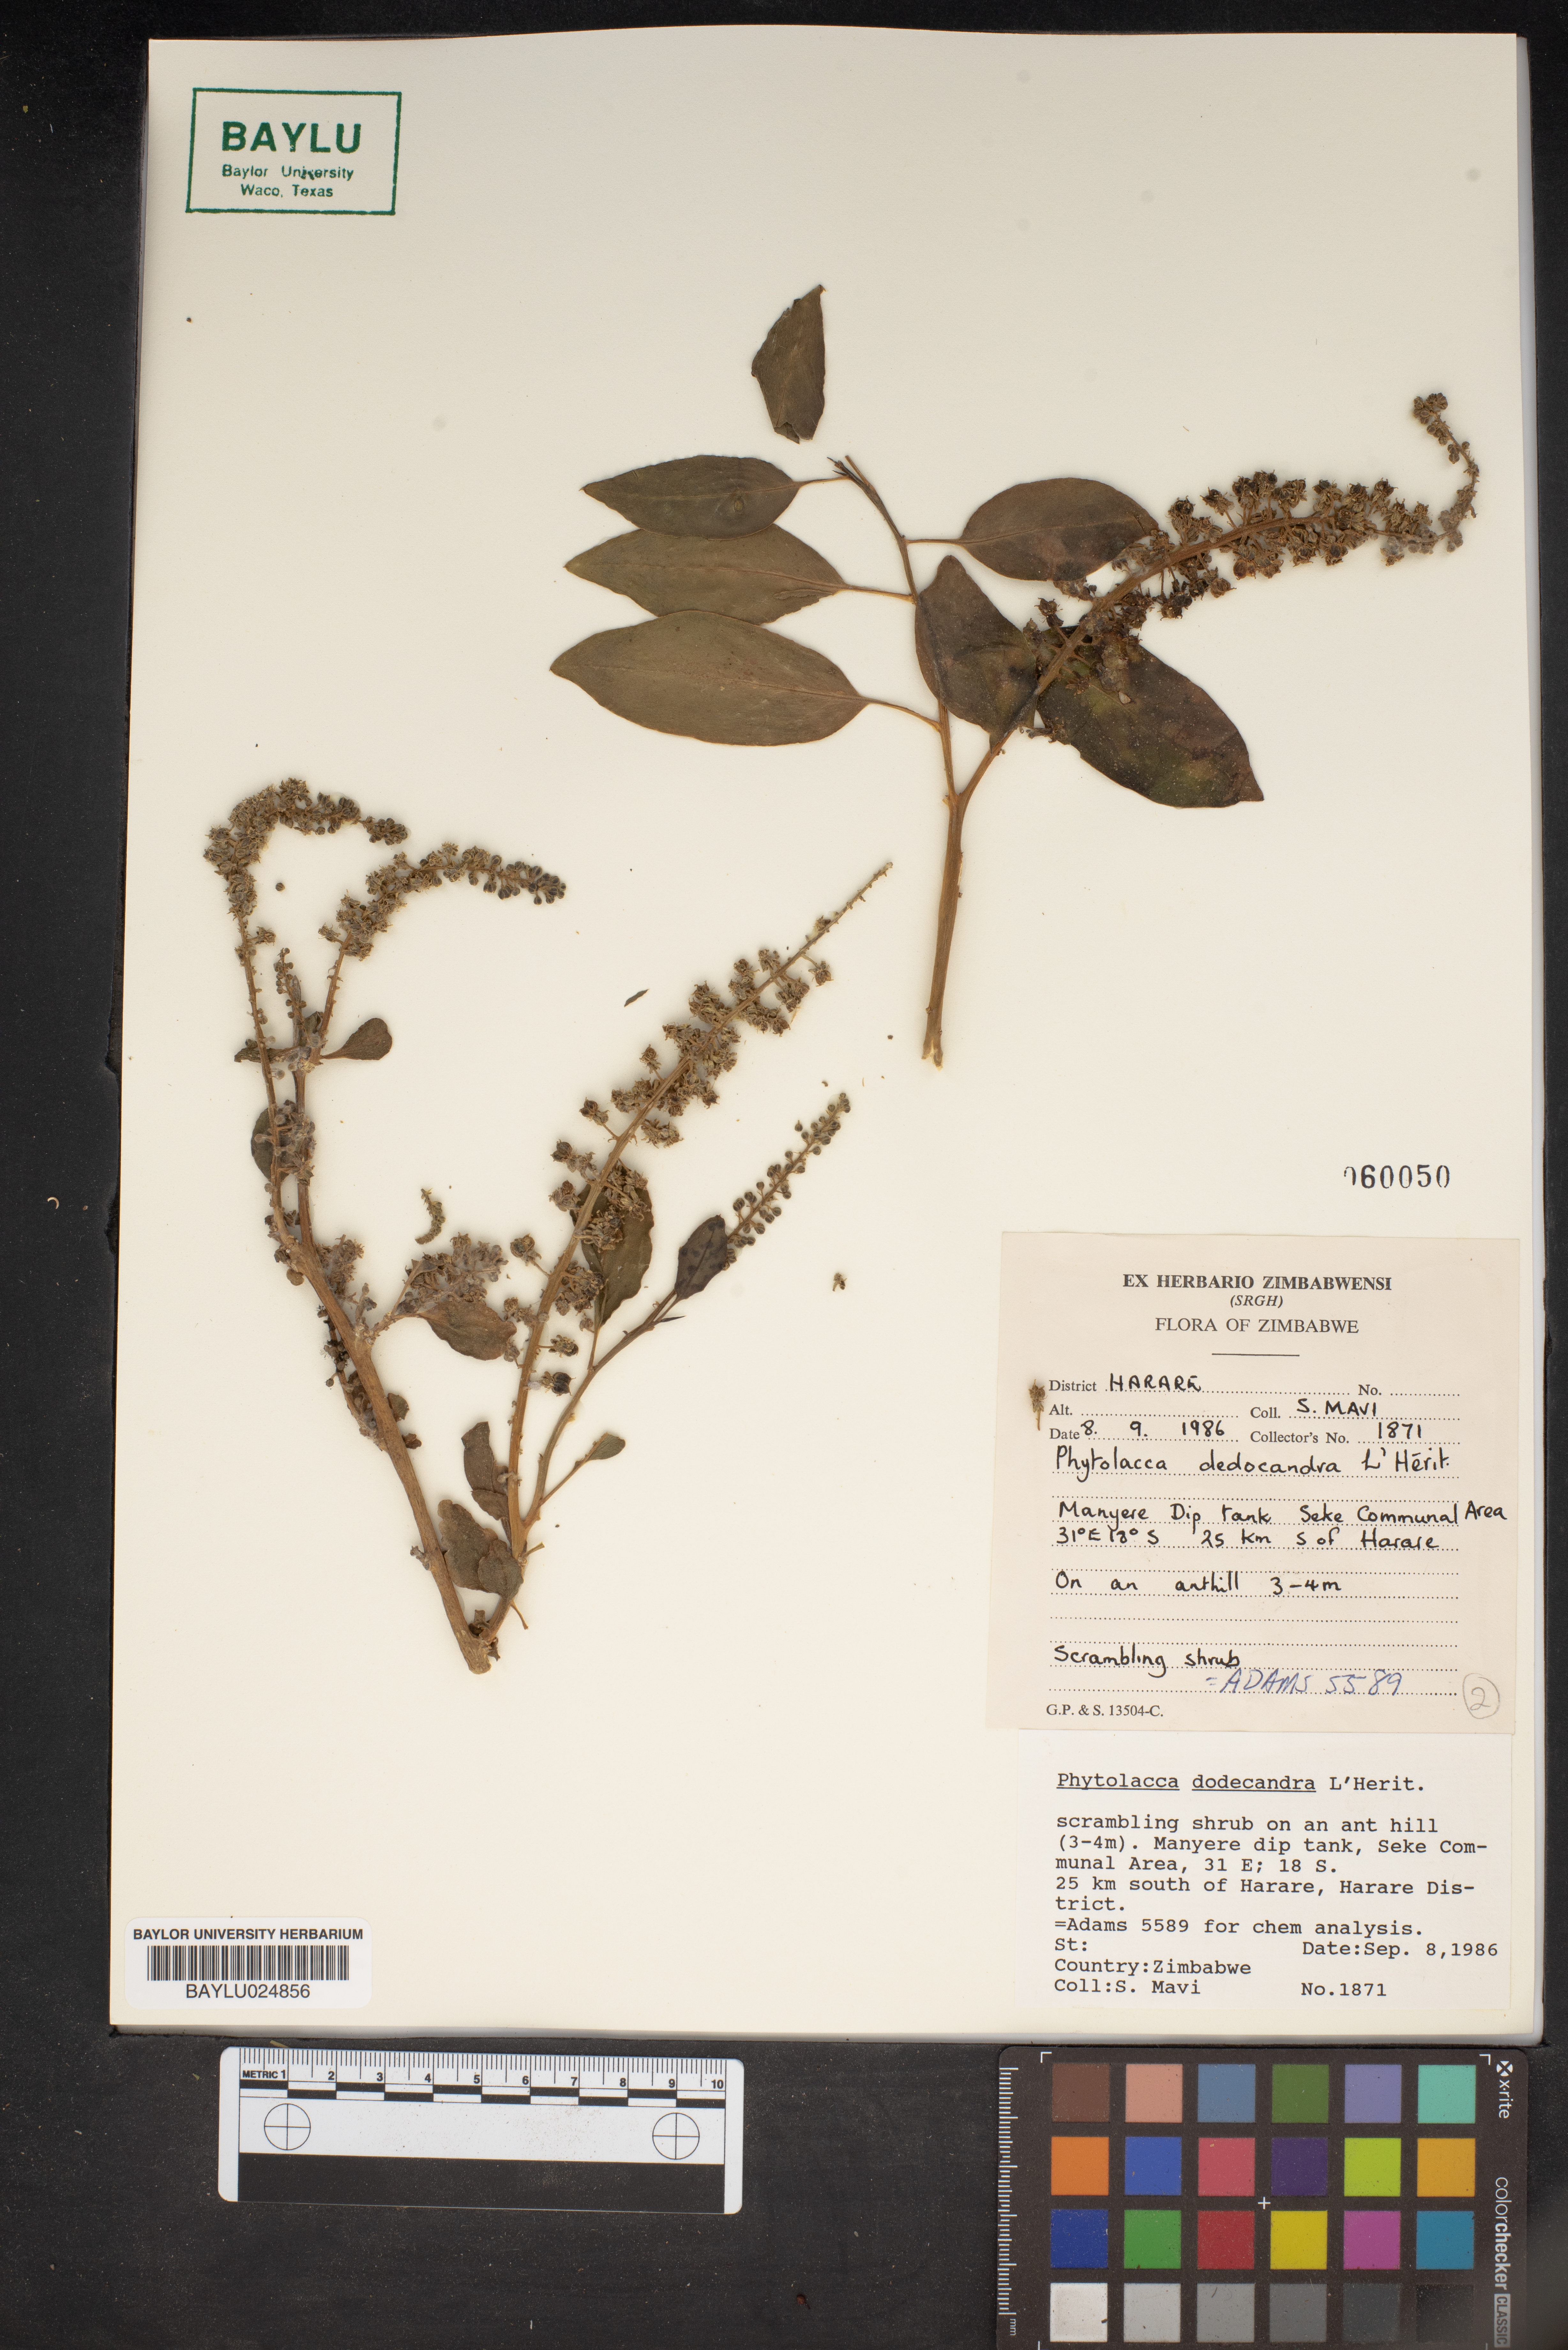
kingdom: Plantae
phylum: Tracheophyta
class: Magnoliopsida
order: Caryophyllales
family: Phytolaccaceae
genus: Phytolacca
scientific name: Phytolacca dodecandra
